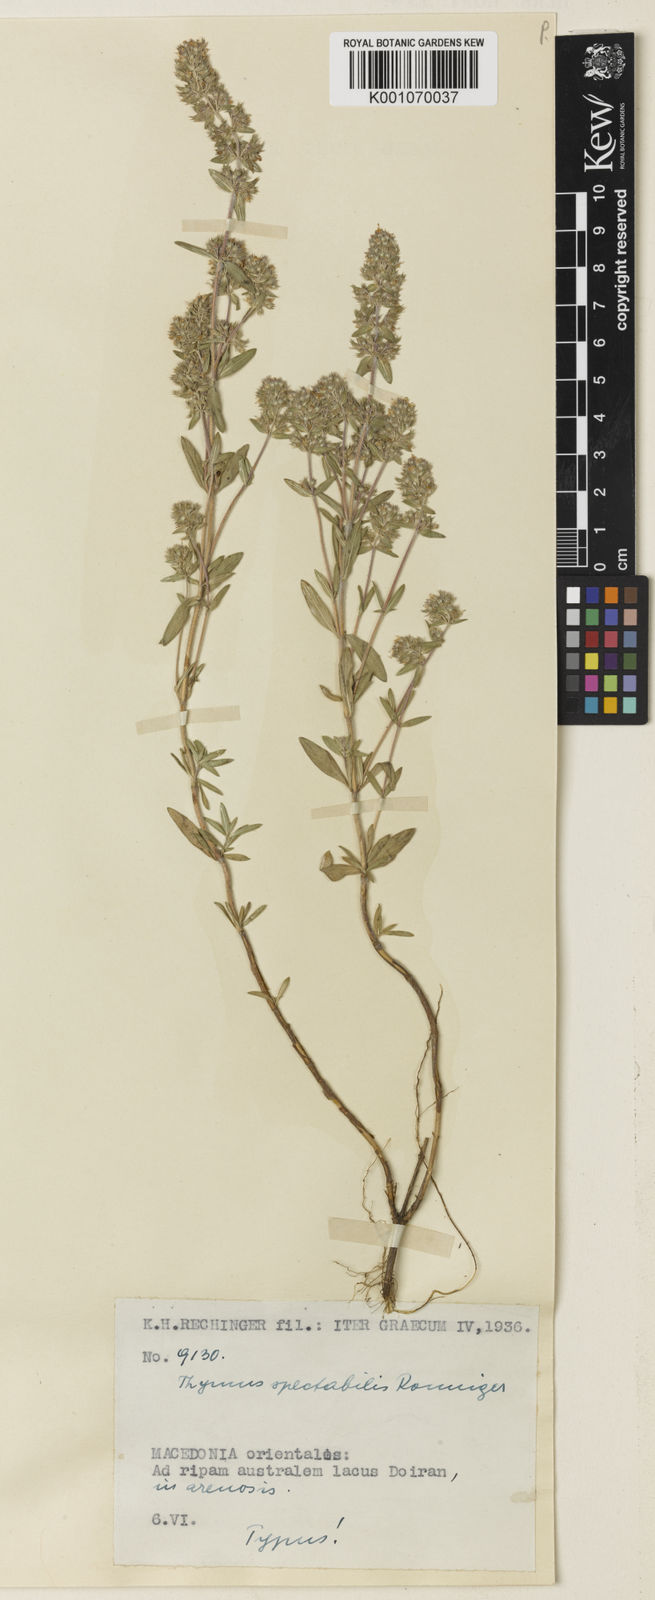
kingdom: Plantae
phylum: Tracheophyta
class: Magnoliopsida
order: Lamiales
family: Lamiaceae
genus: Thymus
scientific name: Thymus sibthorpii
